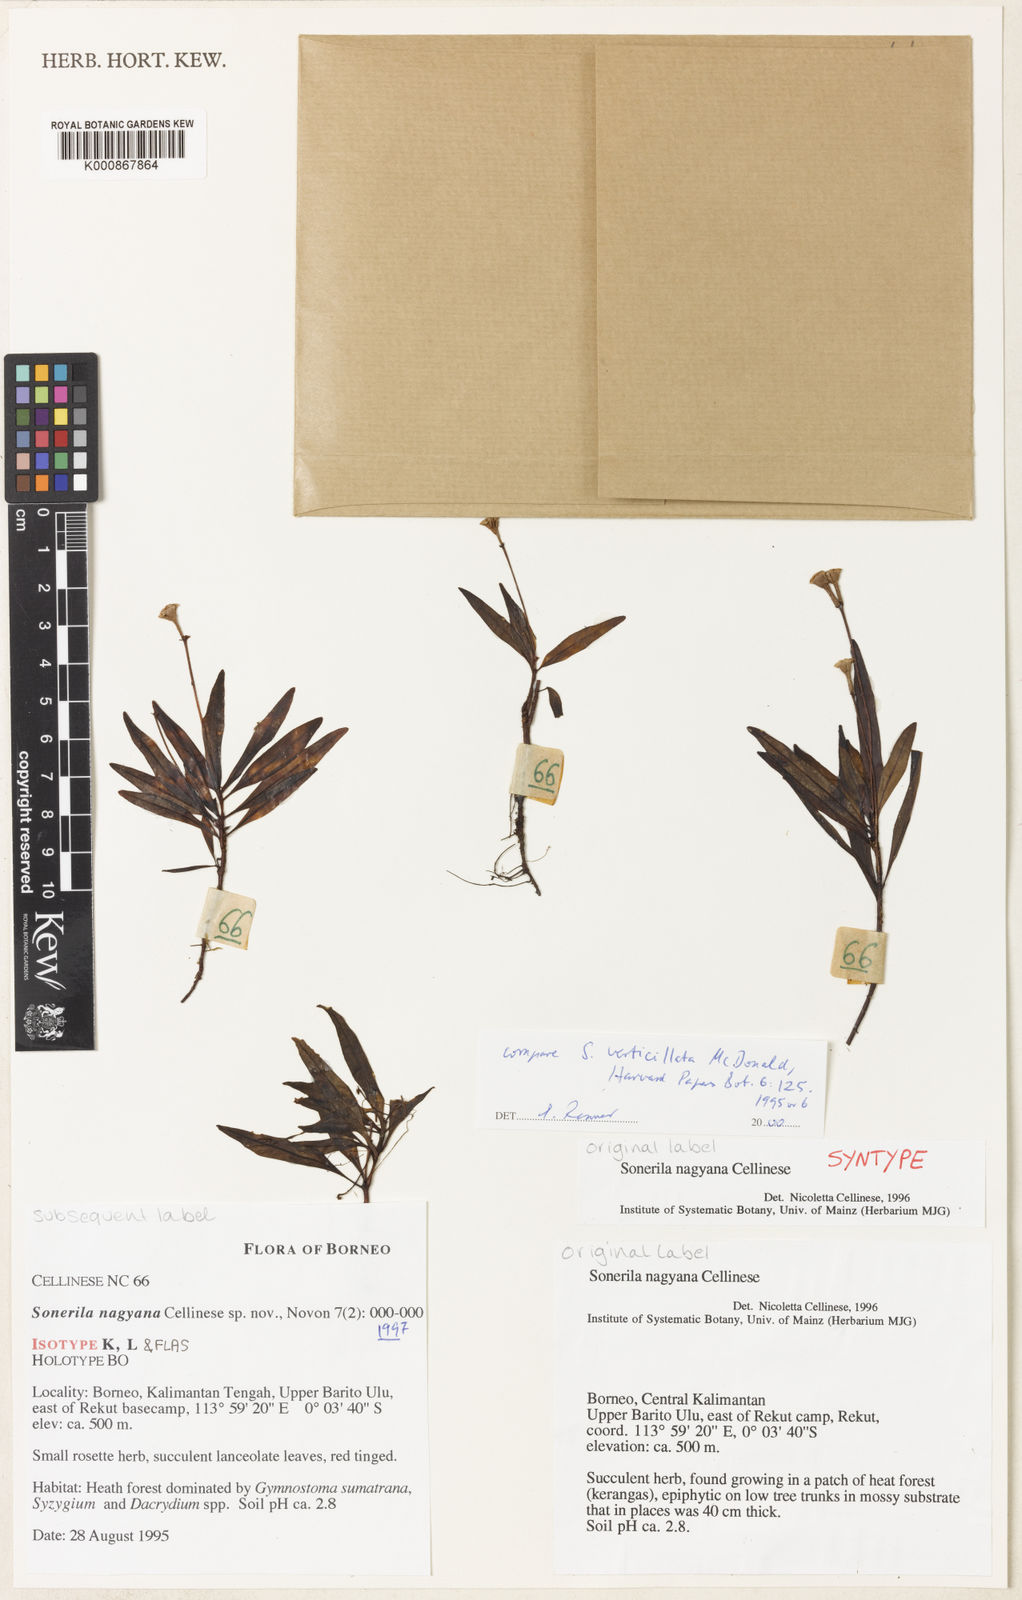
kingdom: Plantae
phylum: Tracheophyta
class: Magnoliopsida
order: Myrtales
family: Melastomataceae
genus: Sonerila
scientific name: Sonerila nagyana
